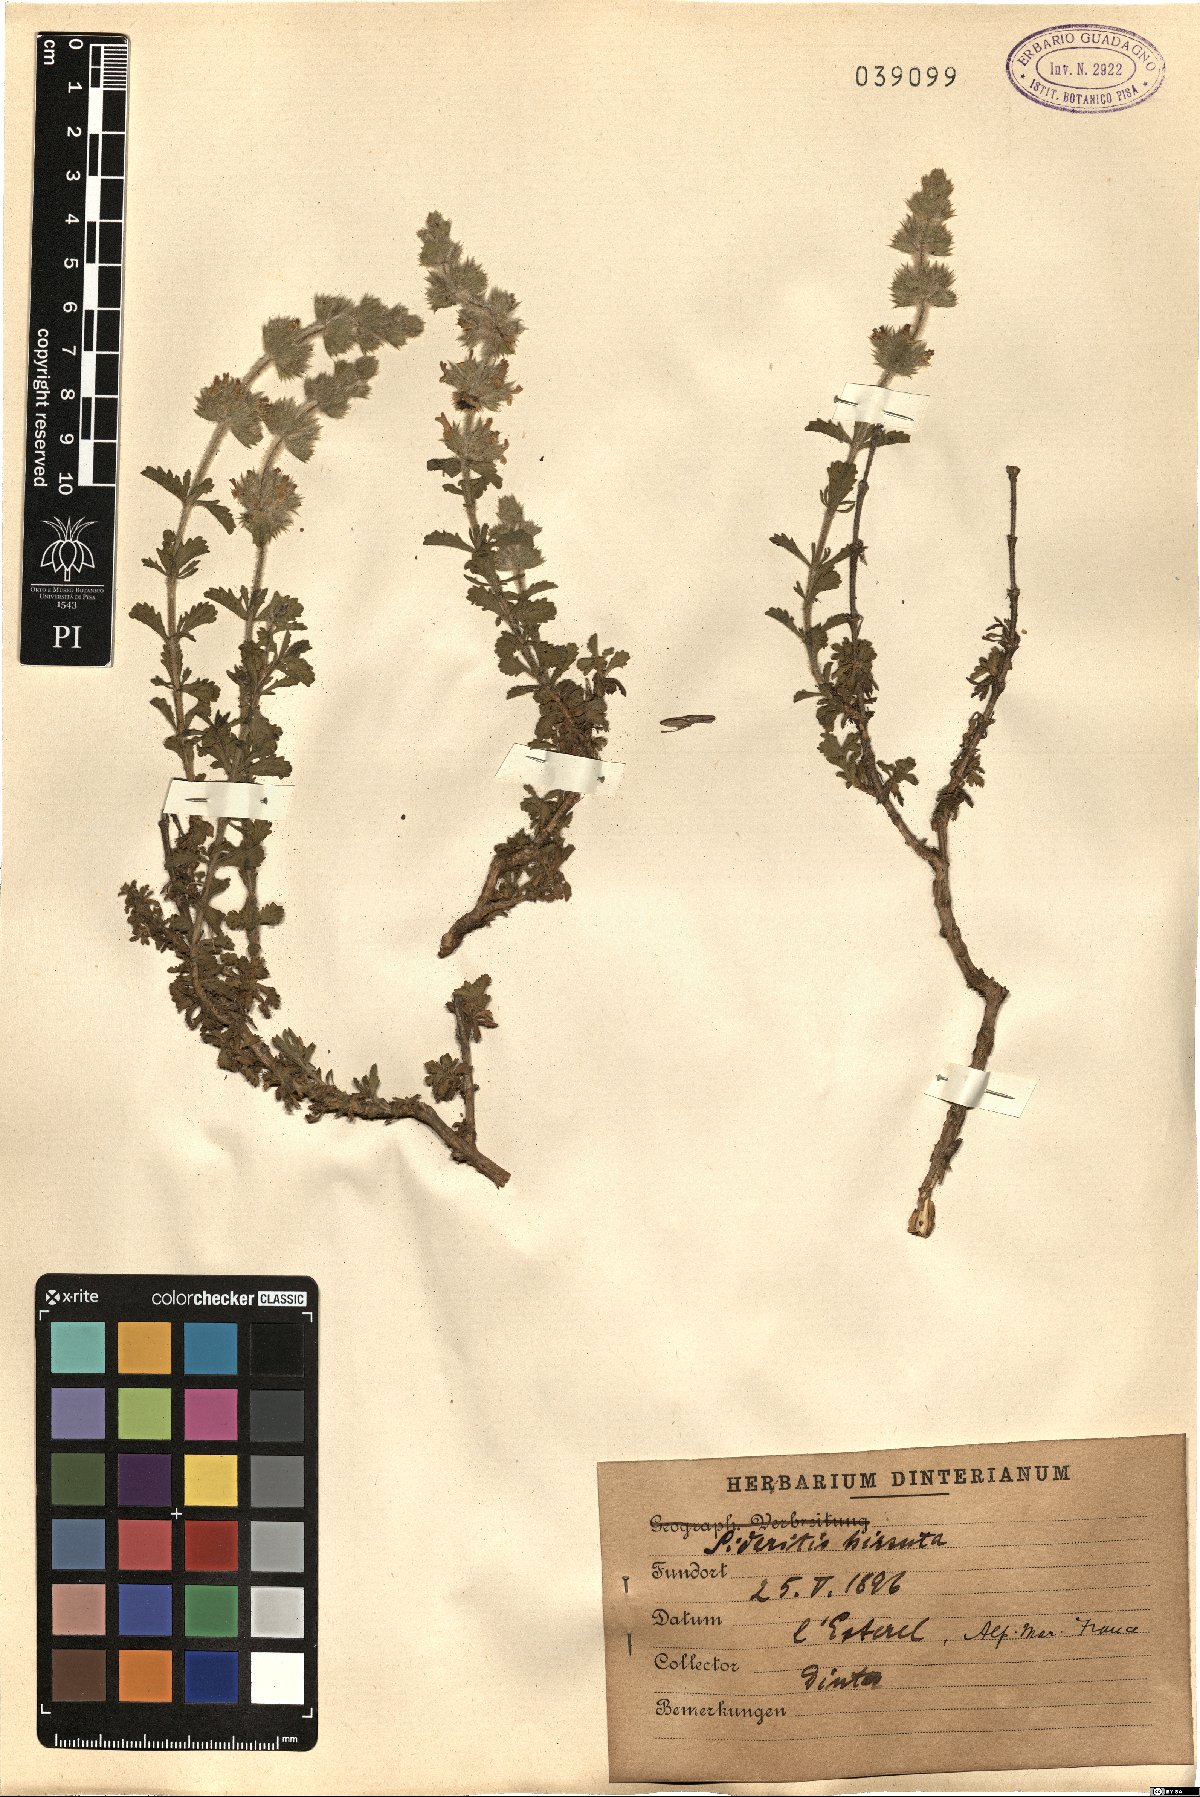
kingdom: Plantae
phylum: Tracheophyta
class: Magnoliopsida
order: Lamiales
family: Lamiaceae
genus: Sideritis
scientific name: Sideritis hirsuta
